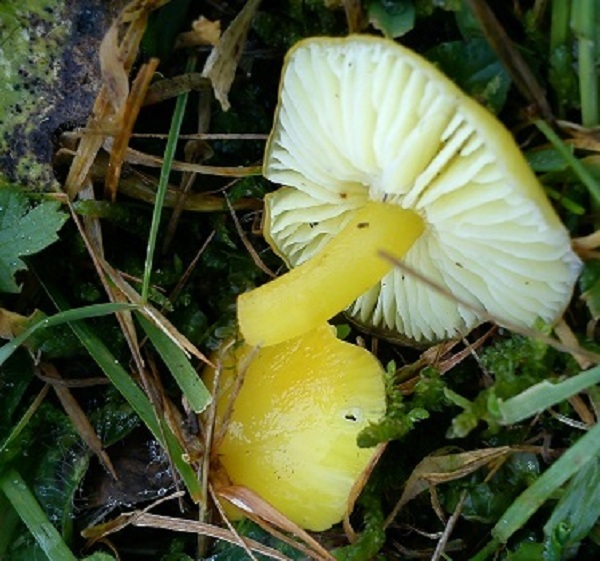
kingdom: Fungi
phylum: Basidiomycota
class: Agaricomycetes
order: Agaricales
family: Hygrophoraceae
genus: Hygrocybe
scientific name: Hygrocybe chlorophana
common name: gul vokshat
